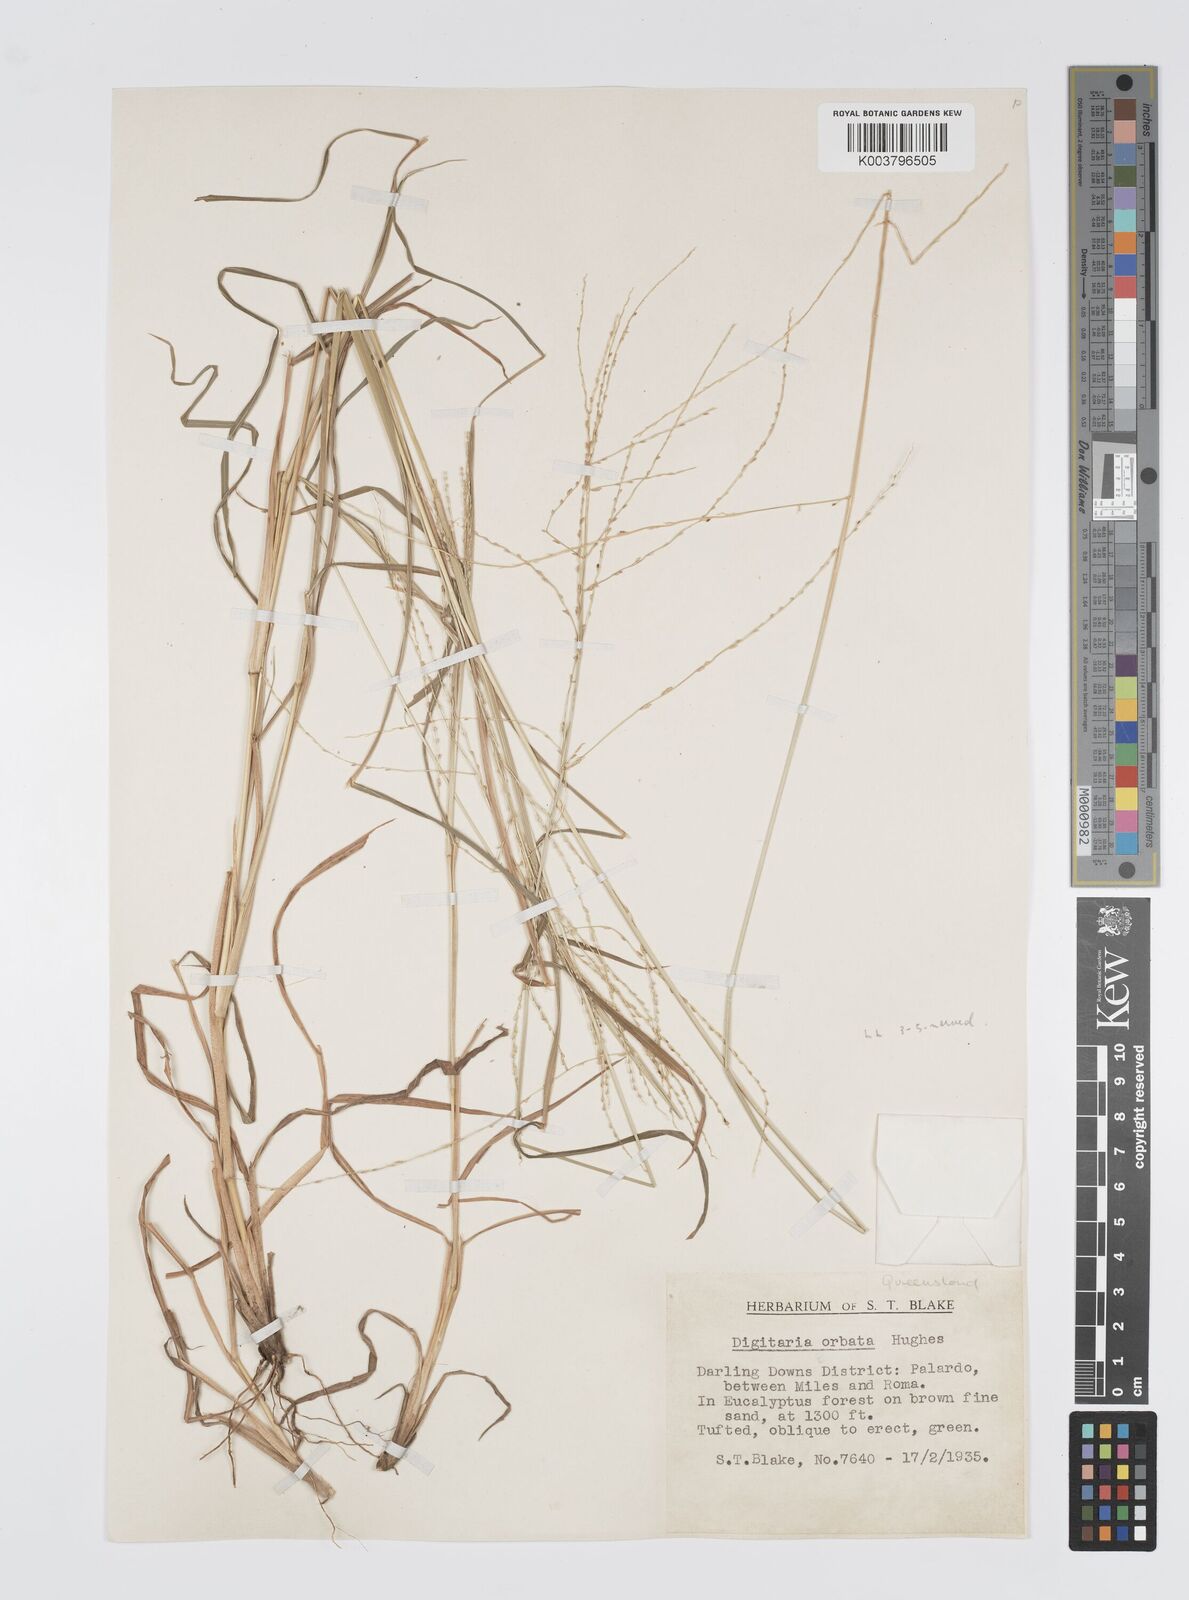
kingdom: Plantae
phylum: Tracheophyta
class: Liliopsida
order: Poales
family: Poaceae
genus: Digitaria
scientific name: Digitaria orbata
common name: Crabgrass
